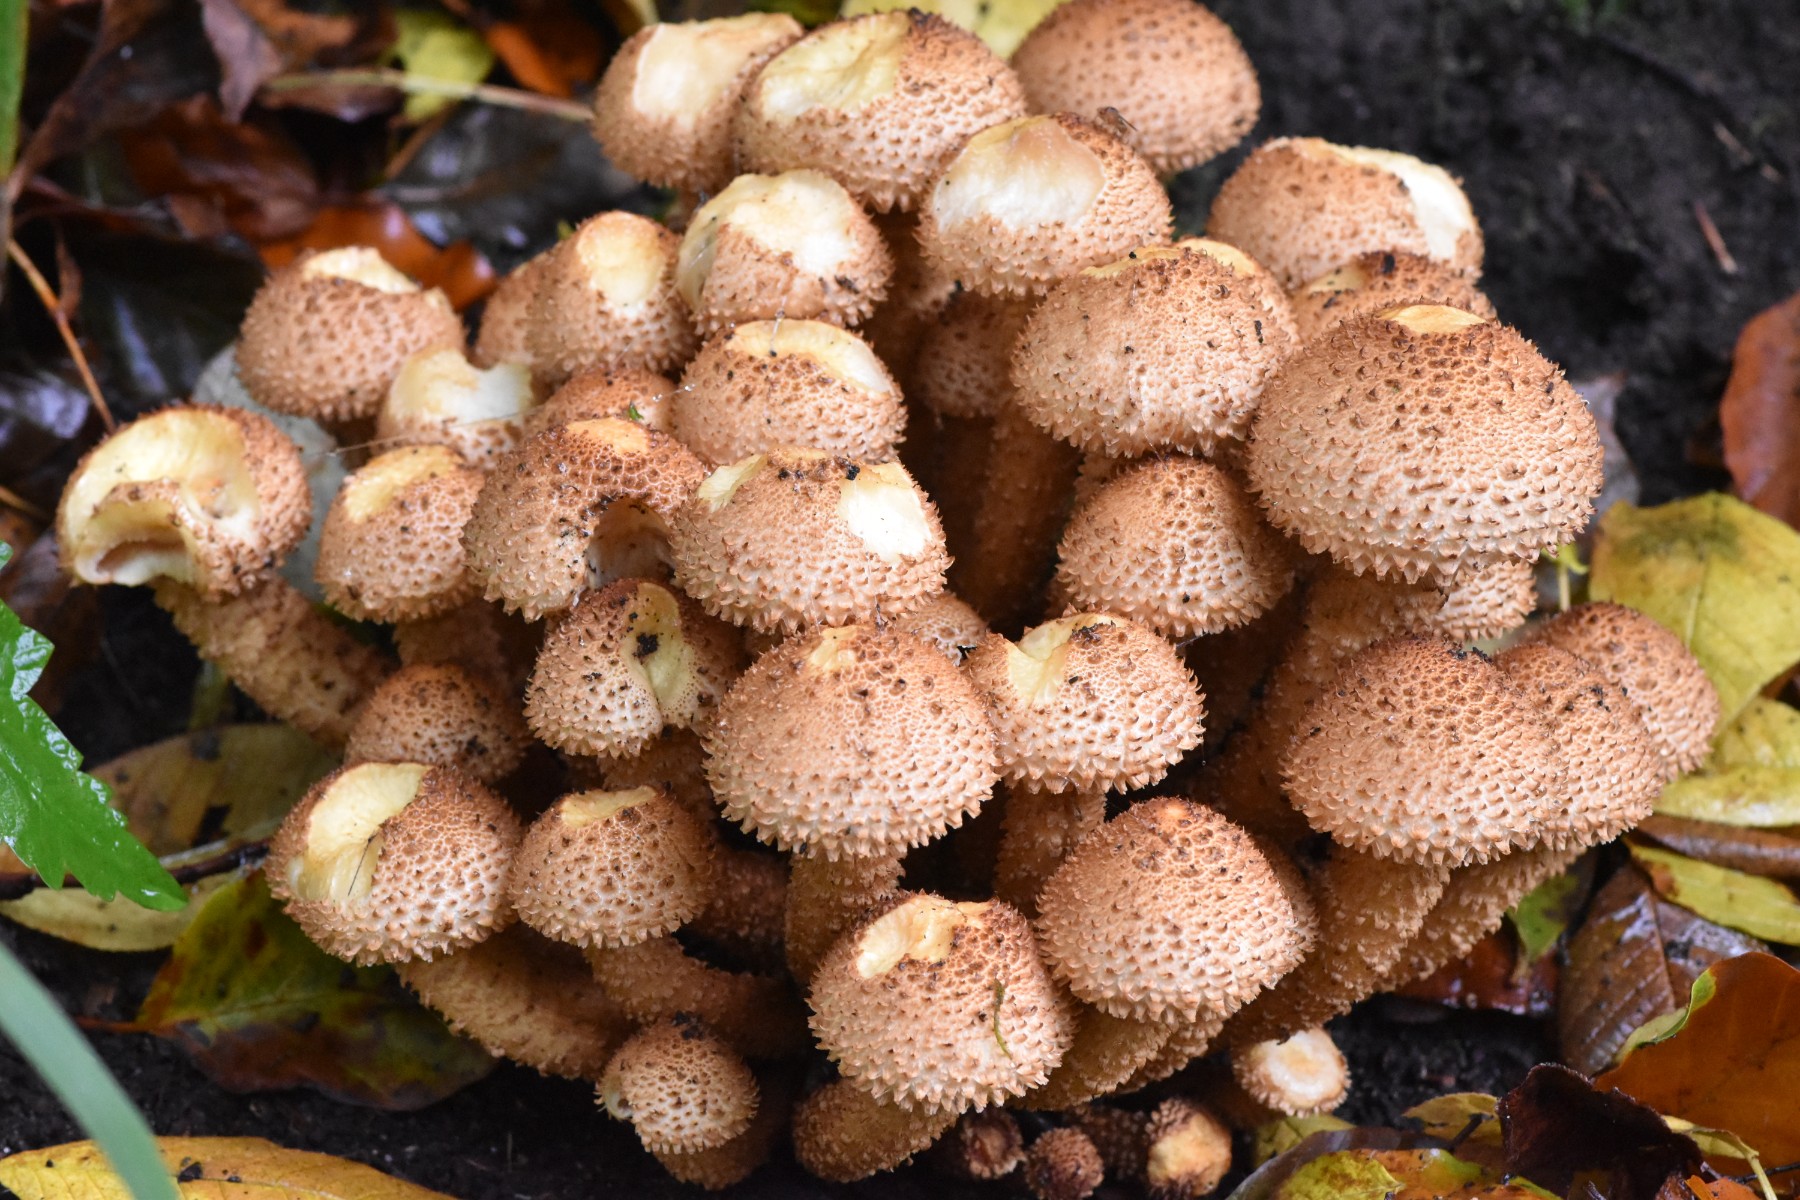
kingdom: Fungi
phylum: Basidiomycota
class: Agaricomycetes
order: Agaricales
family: Strophariaceae
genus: Pholiota
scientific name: Pholiota squarrosa
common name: krumskællet skælhat
